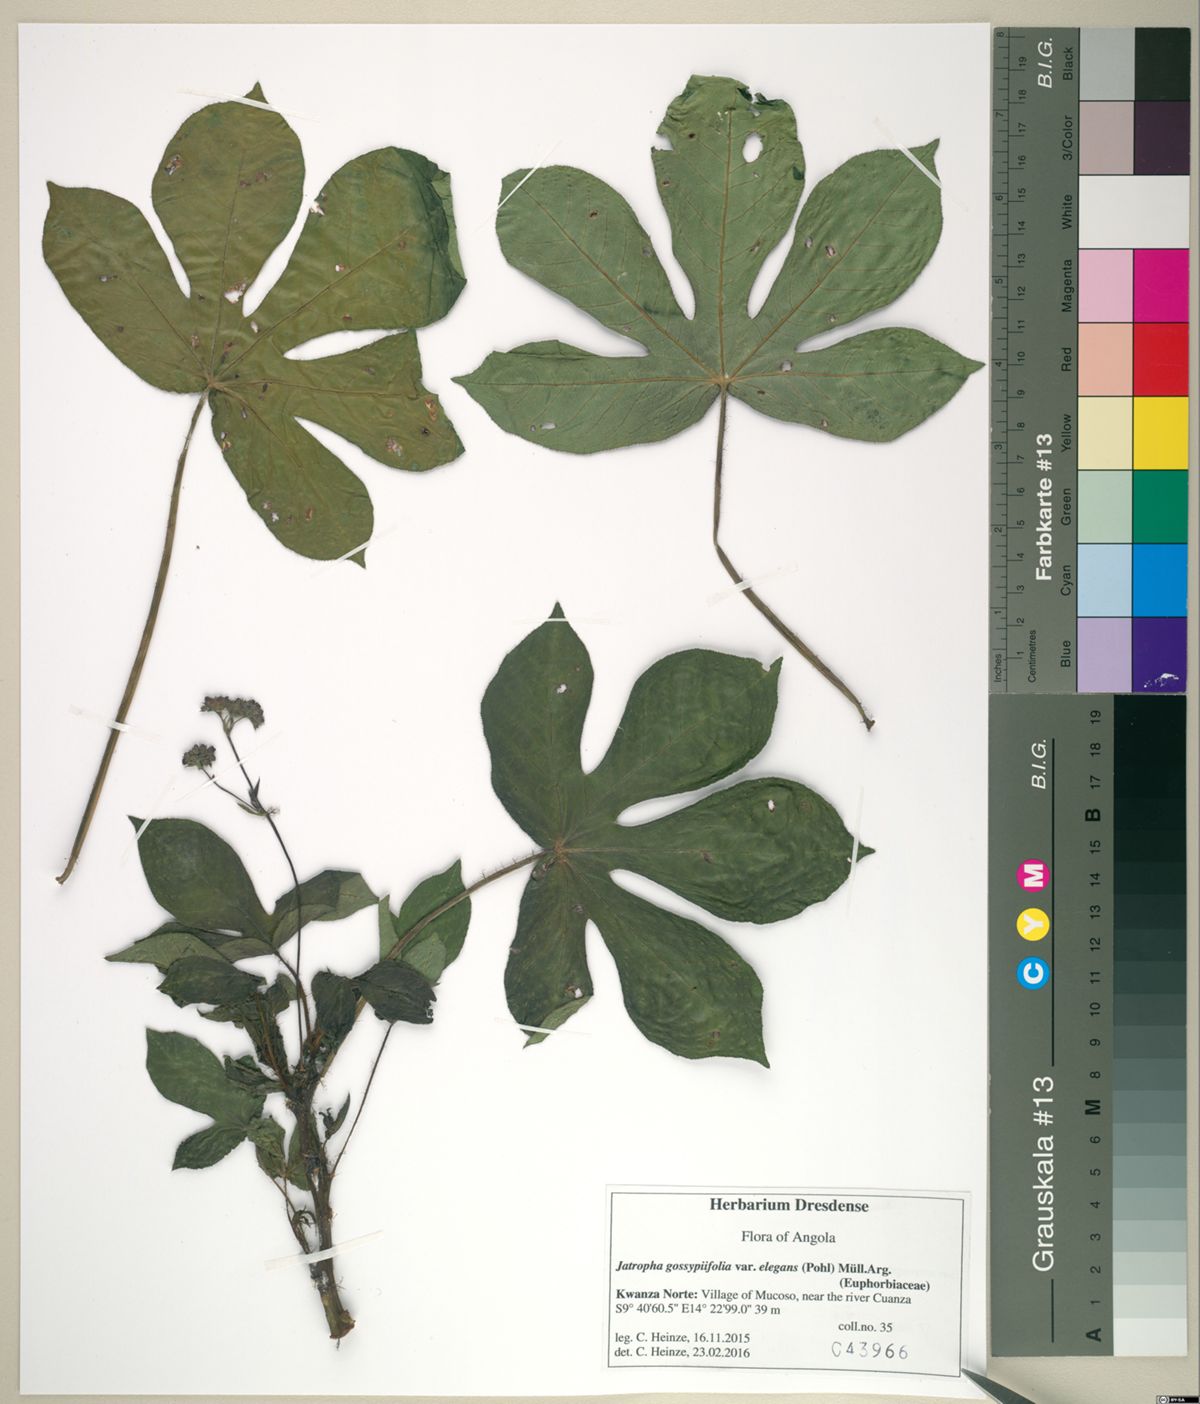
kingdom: Plantae
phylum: Tracheophyta
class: Magnoliopsida
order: Malpighiales
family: Euphorbiaceae
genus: Jatropha
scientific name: Jatropha gossypiifolia
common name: Bellyache bush
